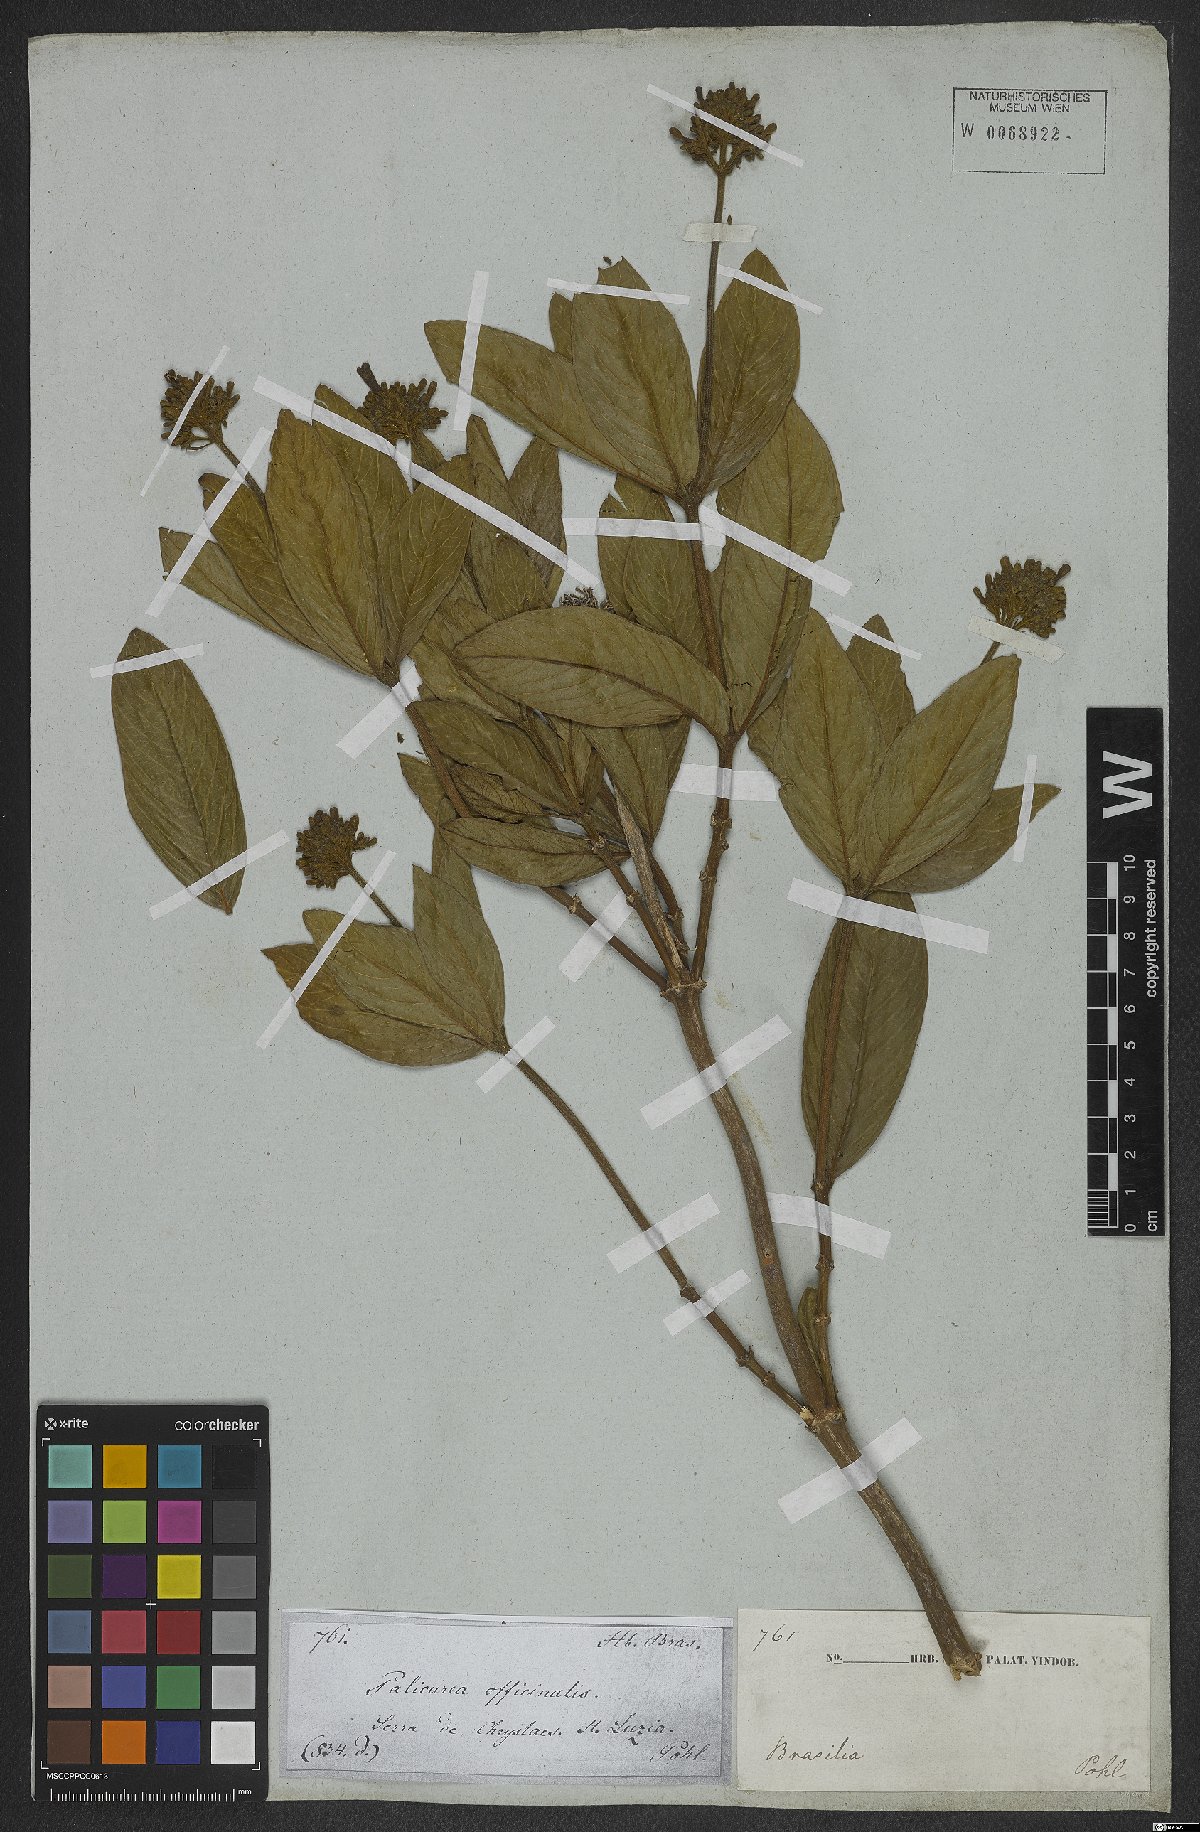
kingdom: Plantae
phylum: Tracheophyta
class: Magnoliopsida
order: Gentianales
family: Rubiaceae
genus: Palicourea
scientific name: Palicourea officinalis
